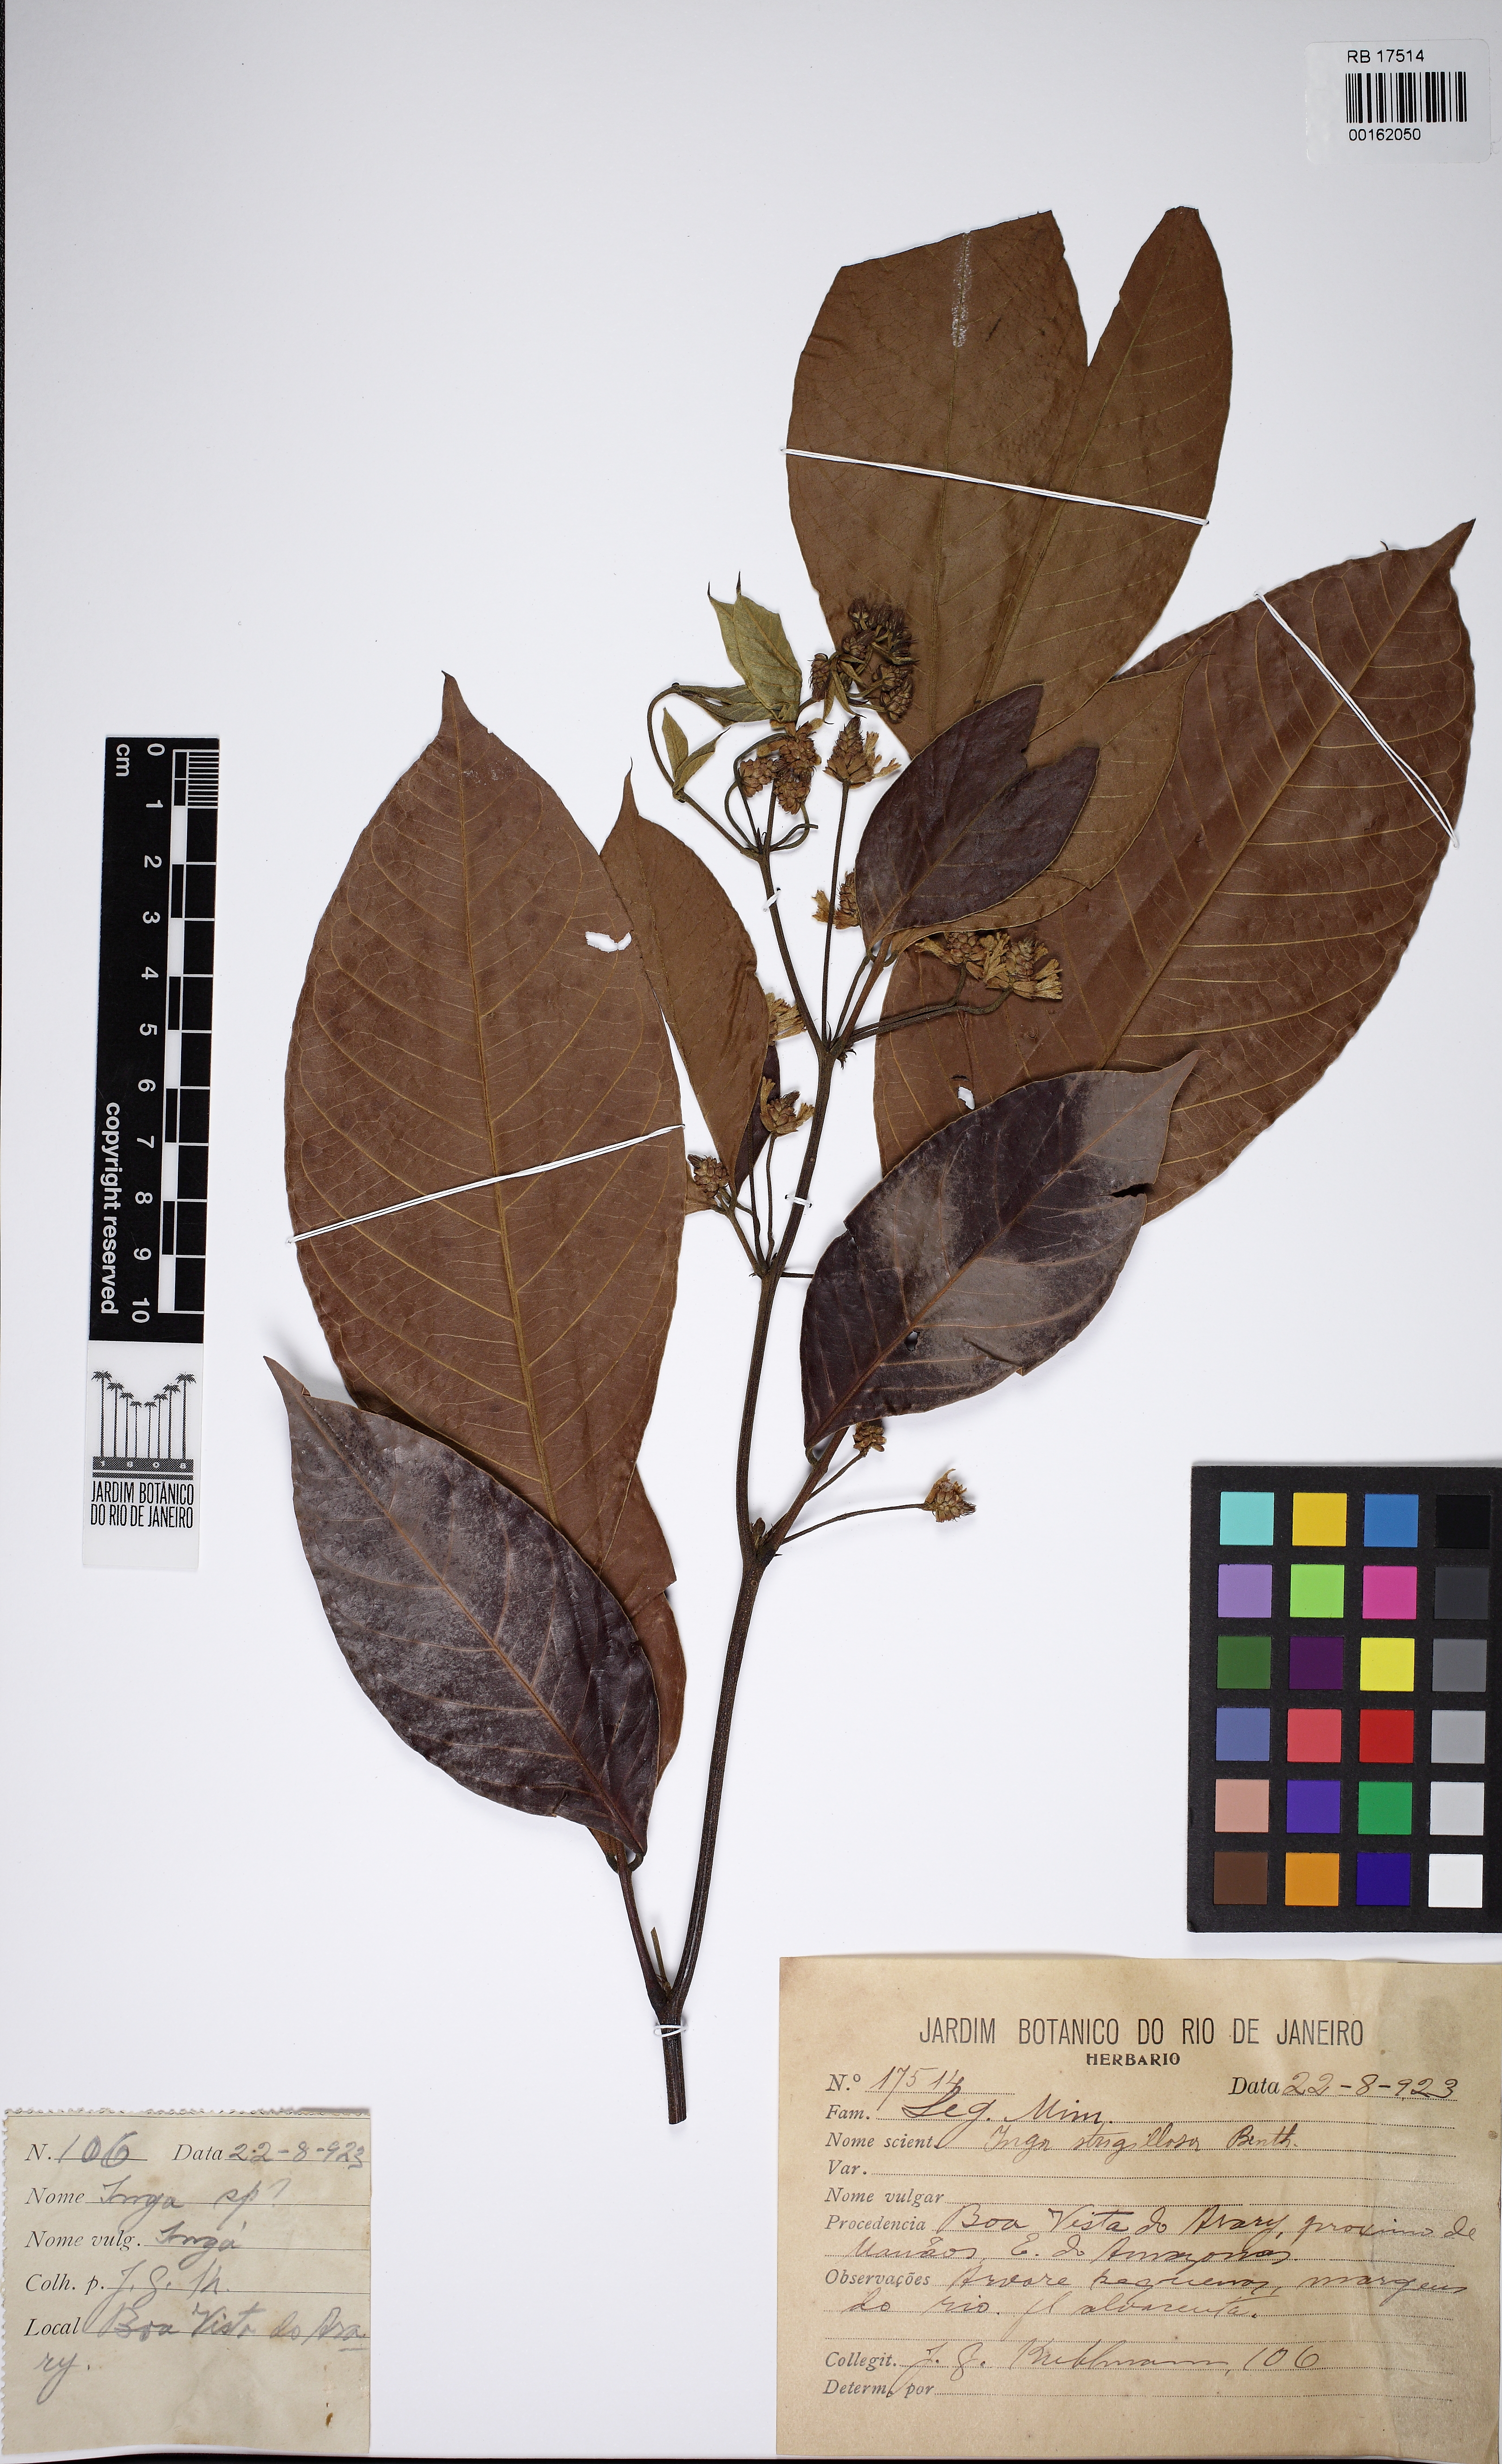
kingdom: Plantae
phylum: Tracheophyta
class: Magnoliopsida
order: Fabales
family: Fabaceae
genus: Inga
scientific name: Inga punctata
